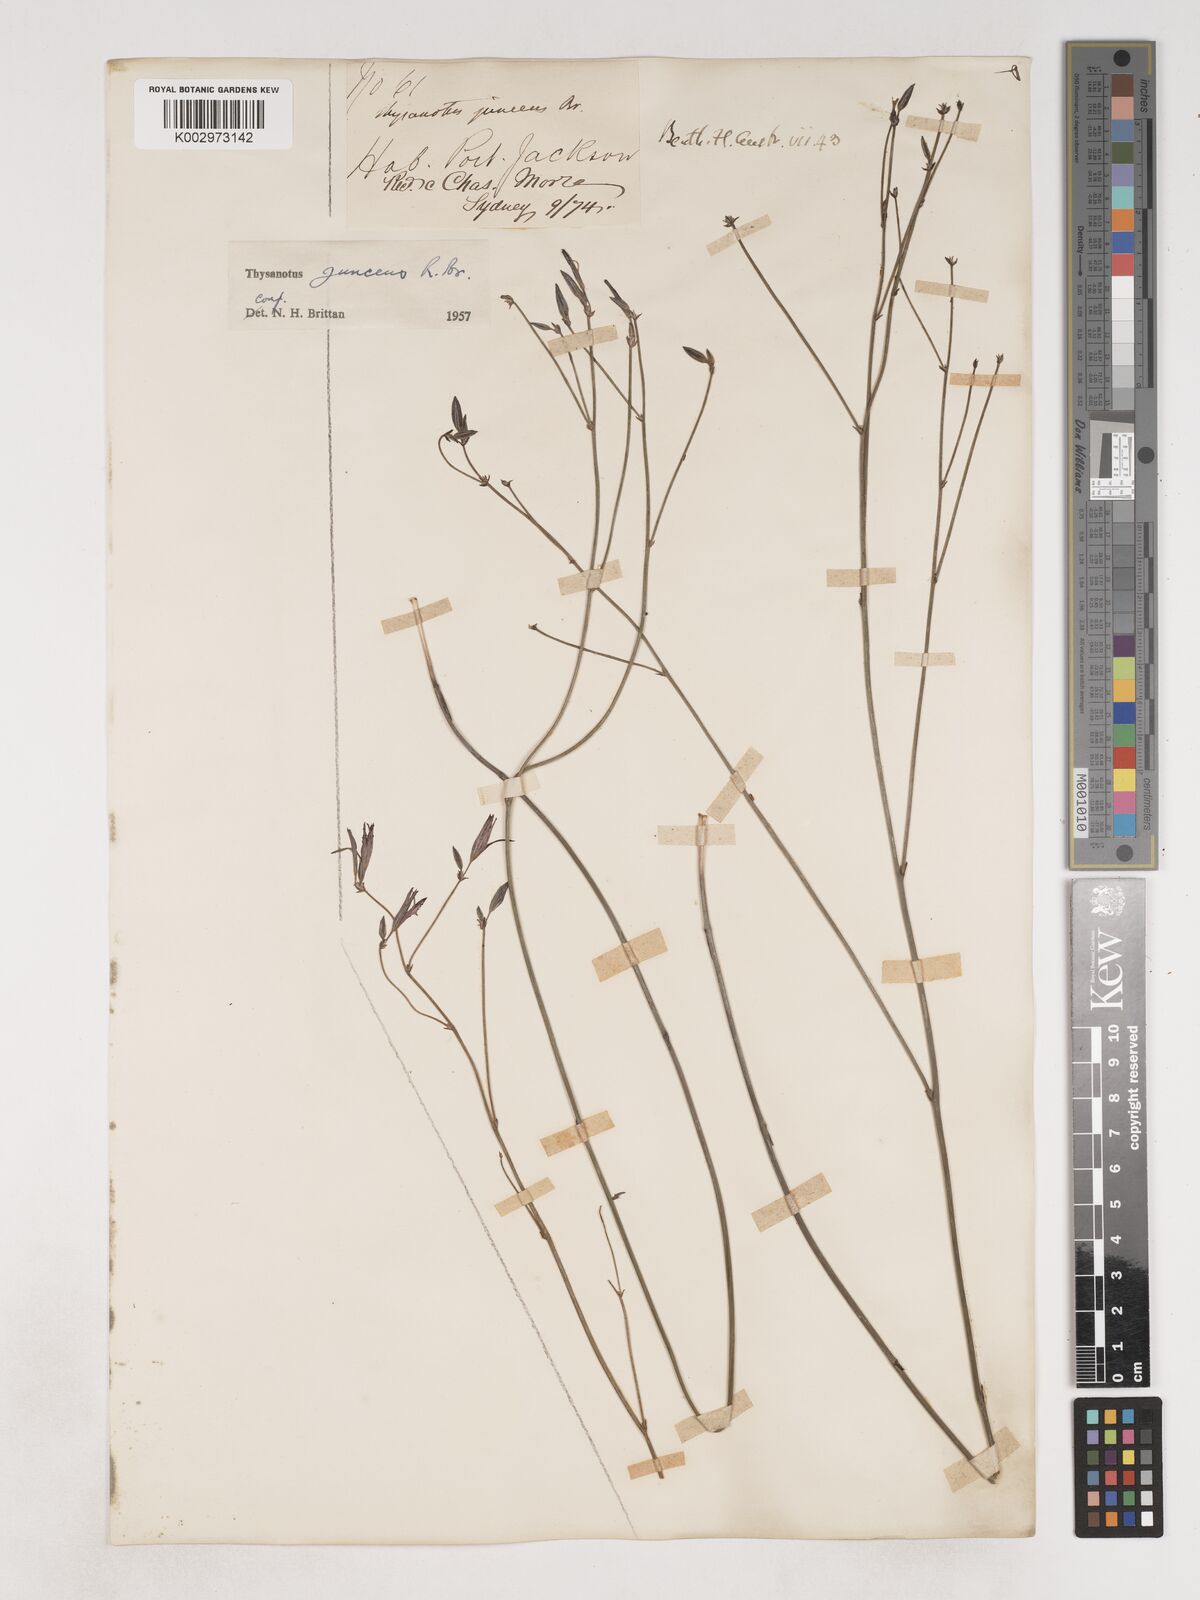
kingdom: Plantae
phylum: Tracheophyta
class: Liliopsida
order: Asparagales
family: Asparagaceae
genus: Thysanotus
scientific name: Thysanotus juncifolius
